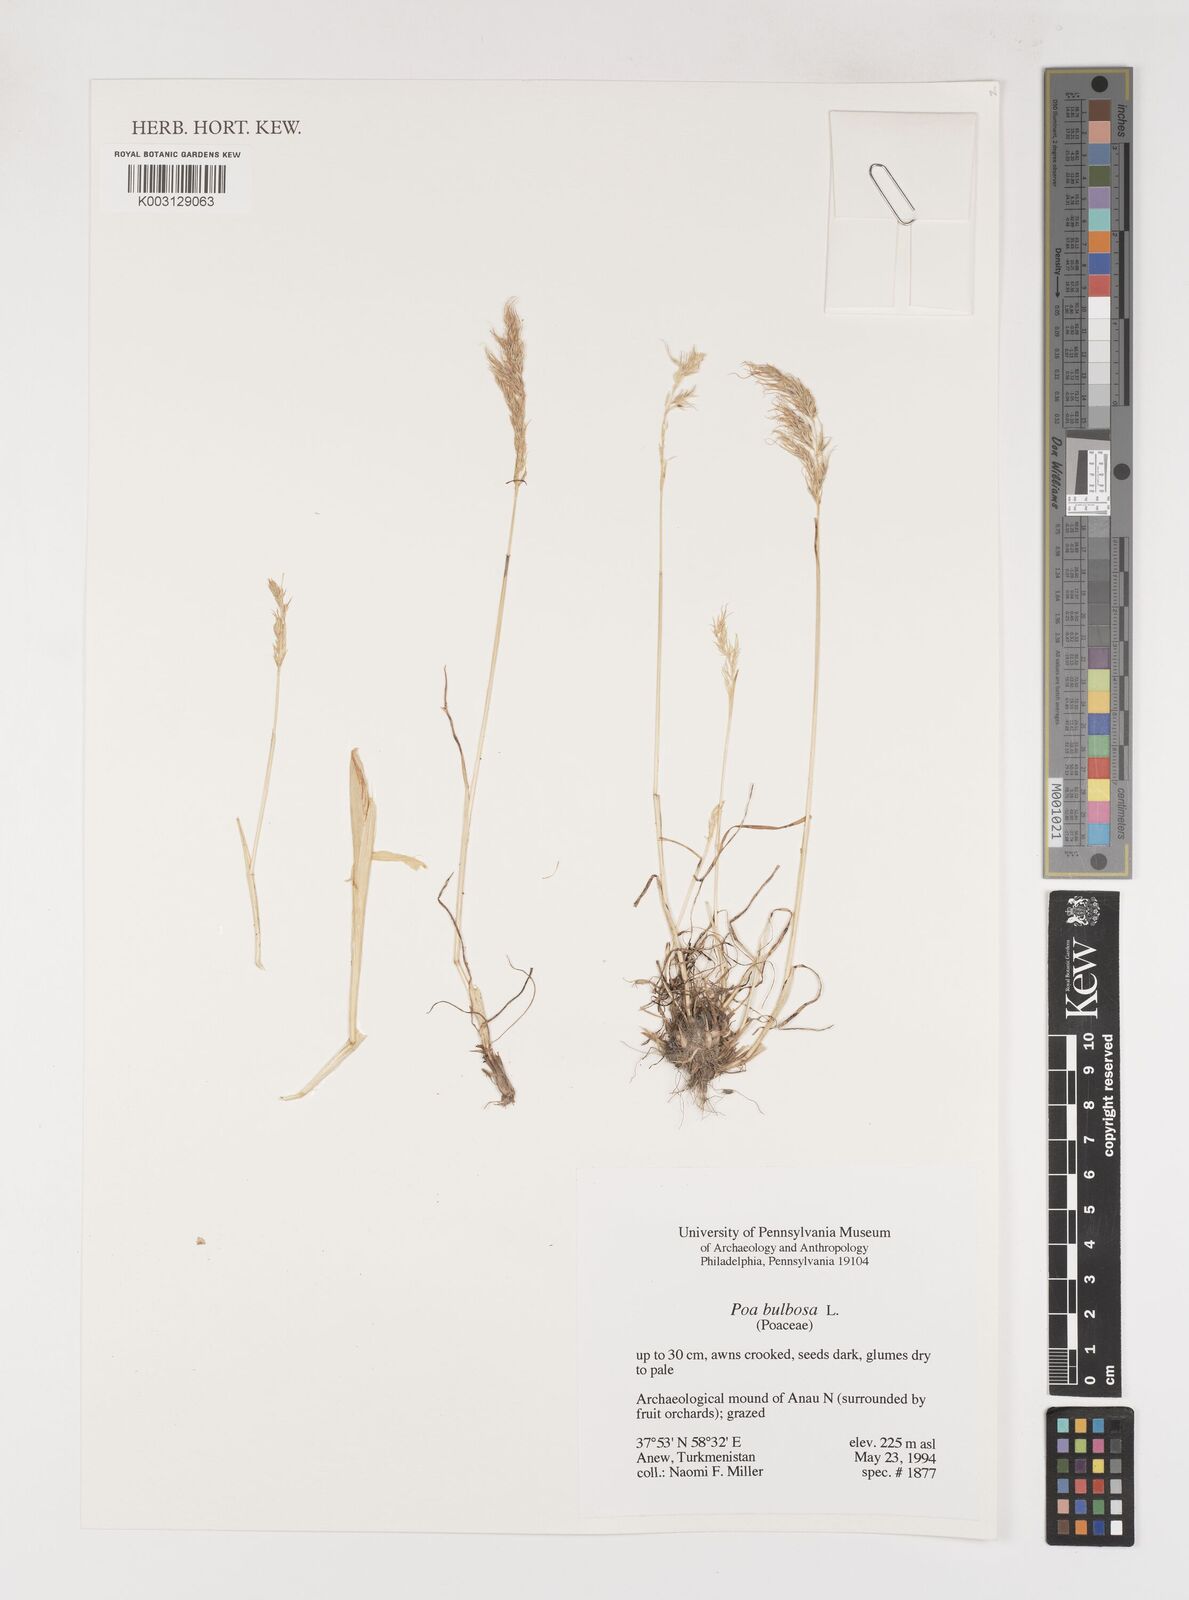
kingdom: Plantae
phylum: Tracheophyta
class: Liliopsida
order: Poales
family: Poaceae
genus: Poa
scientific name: Poa
